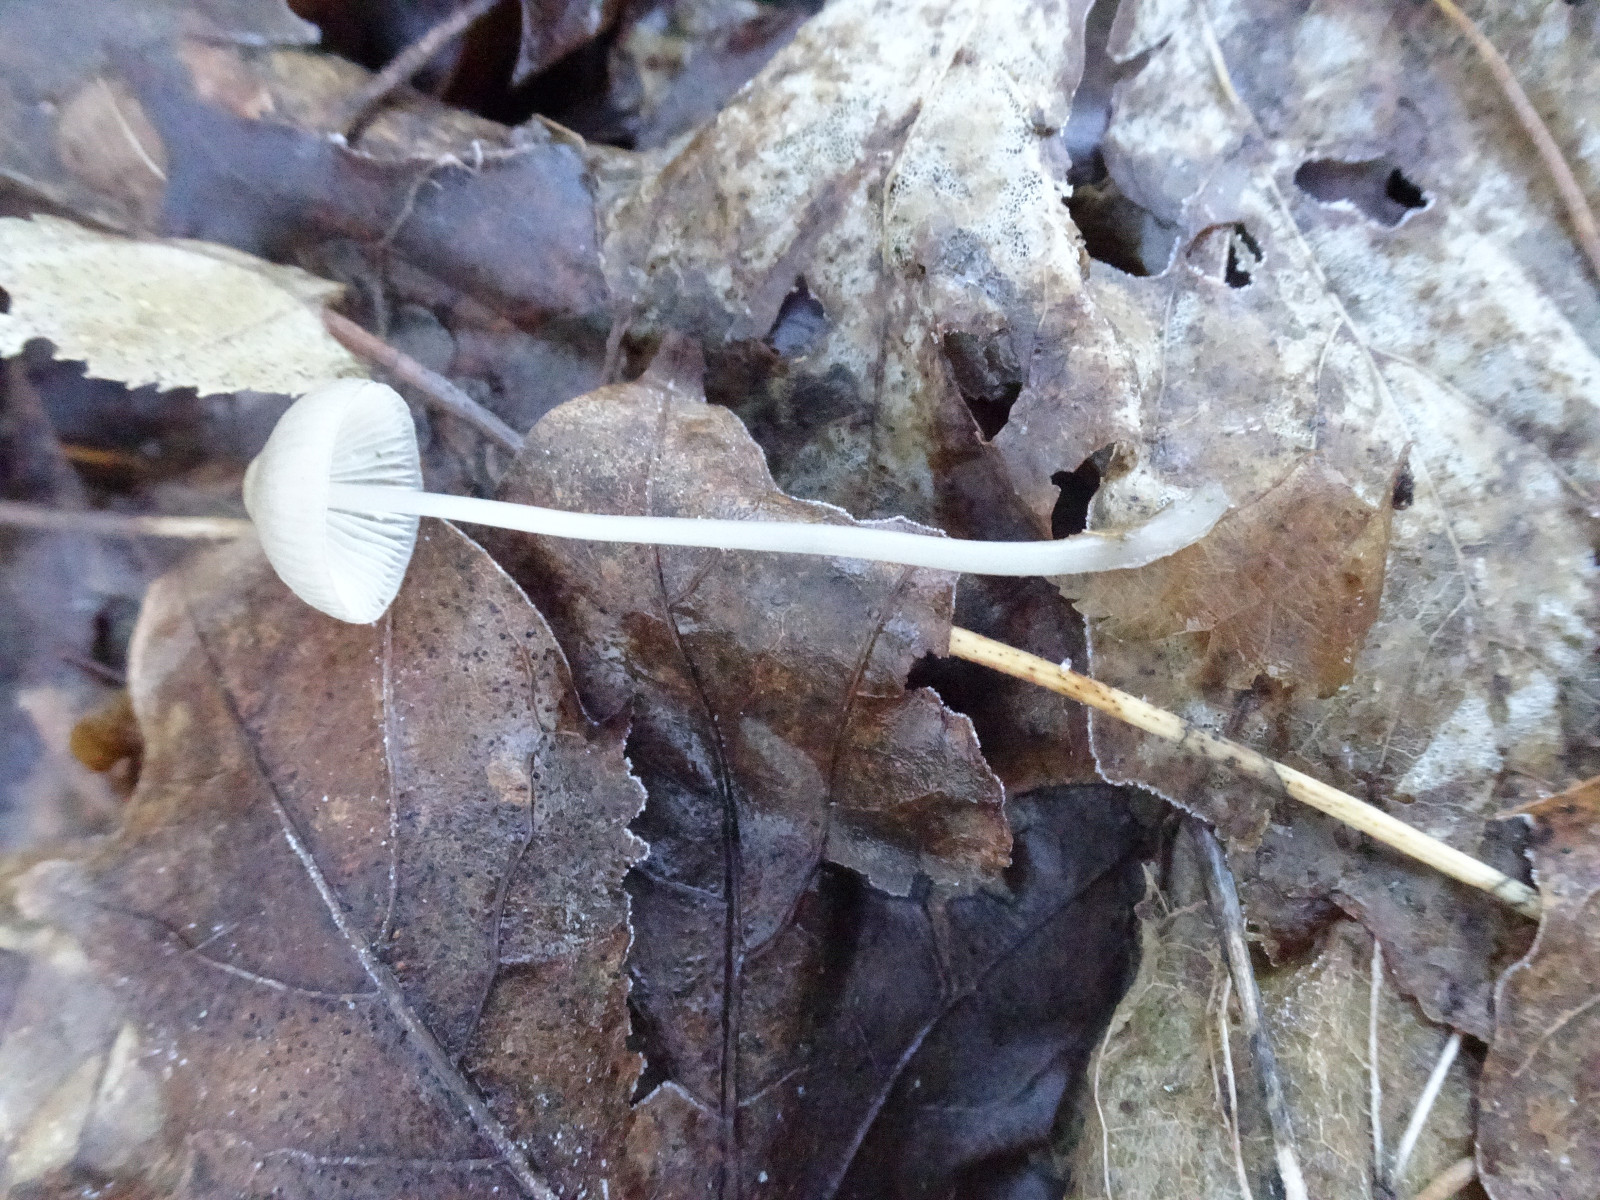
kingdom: Fungi
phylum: Basidiomycota
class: Agaricomycetes
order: Agaricales
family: Mycenaceae
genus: Mycena
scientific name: Mycena vitilis
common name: blankstokket huesvamp
